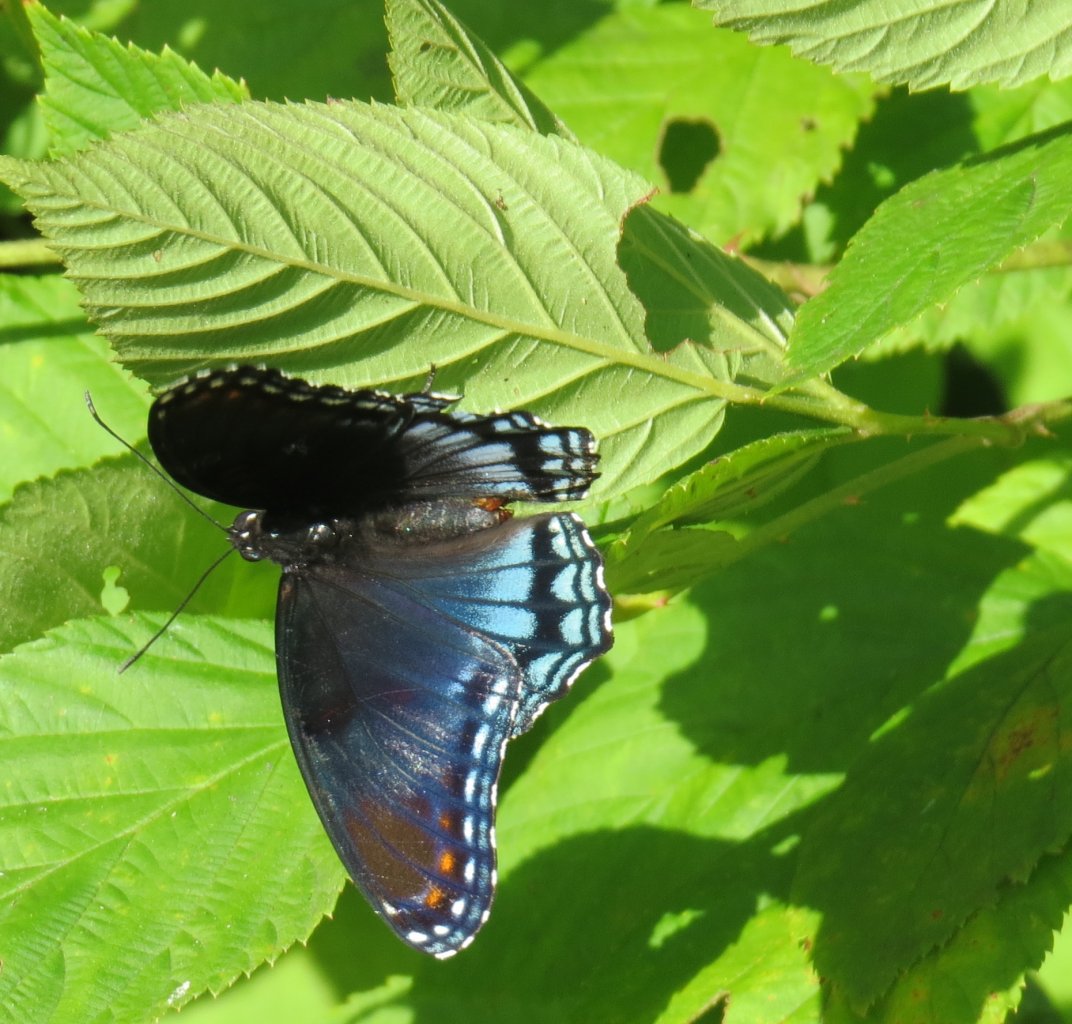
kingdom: Animalia
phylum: Arthropoda
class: Insecta
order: Lepidoptera
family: Nymphalidae
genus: Limenitis
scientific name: Limenitis astyanax
